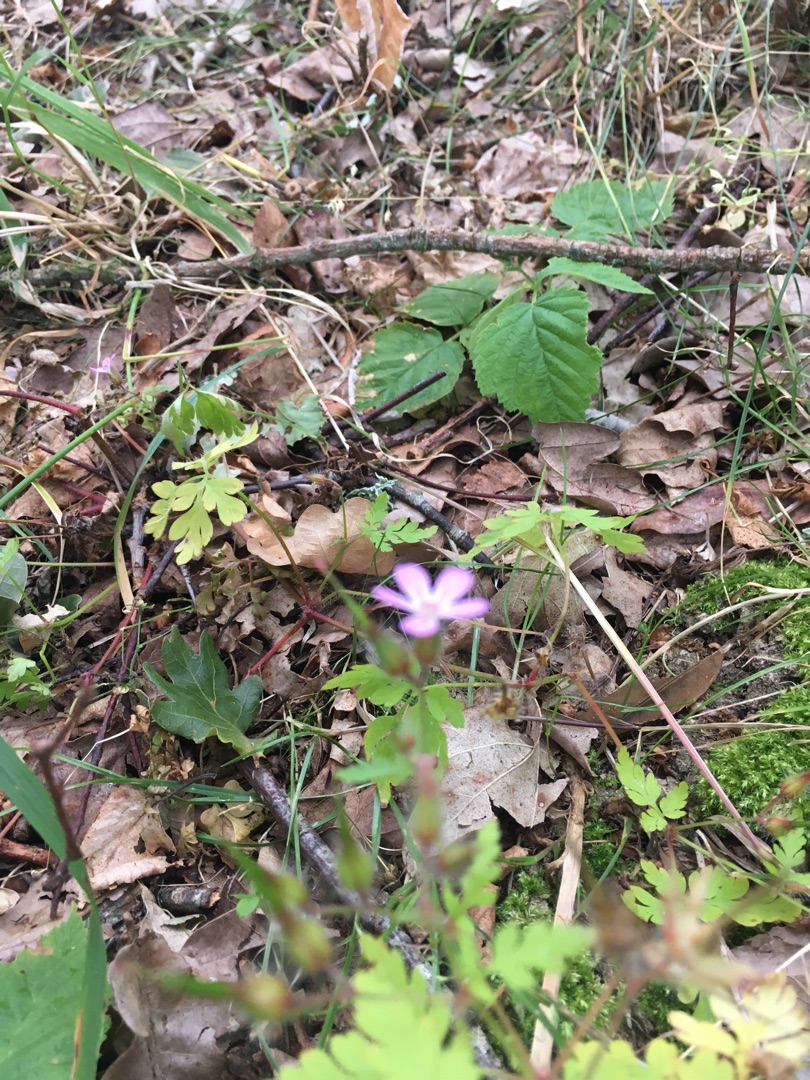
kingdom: Plantae
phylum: Tracheophyta
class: Magnoliopsida
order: Geraniales
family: Geraniaceae
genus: Geranium
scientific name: Geranium robertianum
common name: Stinkende storkenæb
